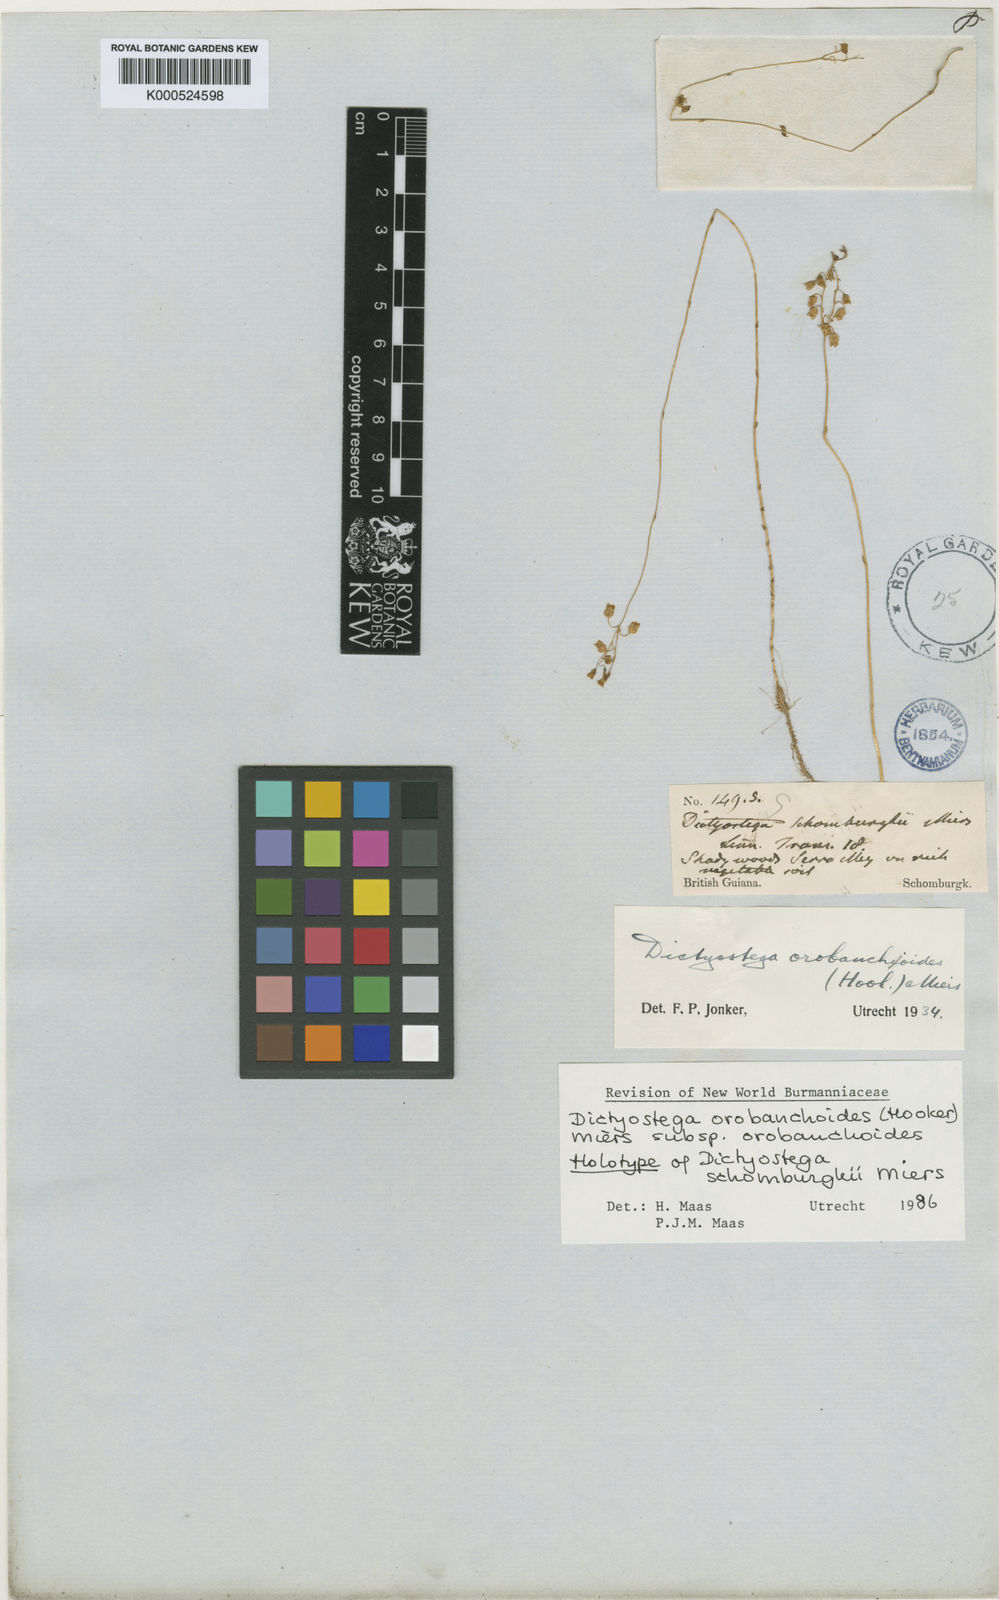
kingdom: Plantae
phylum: Tracheophyta
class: Liliopsida
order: Dioscoreales
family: Burmanniaceae
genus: Dictyostega
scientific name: Dictyostega orobanchoides
